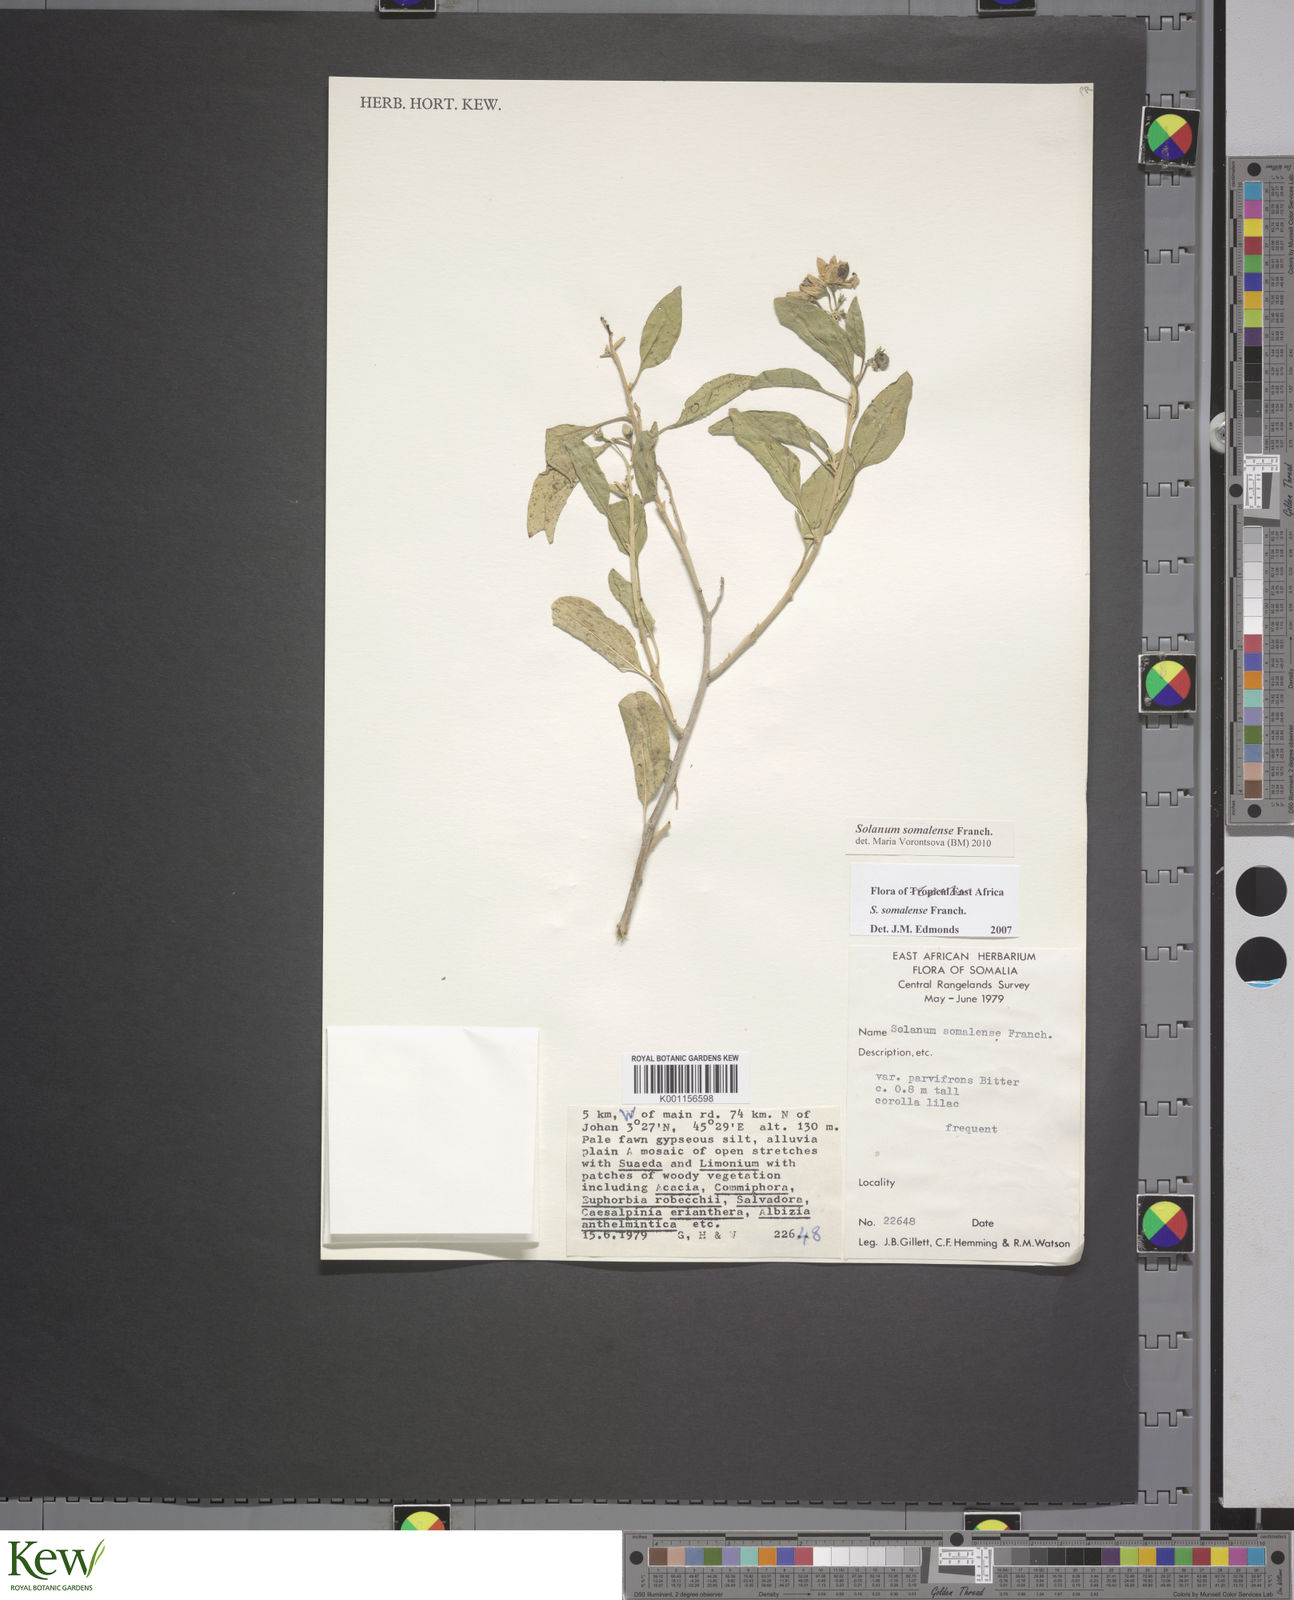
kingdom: Plantae
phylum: Tracheophyta
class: Magnoliopsida
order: Solanales
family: Solanaceae
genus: Solanum
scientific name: Solanum somalense
